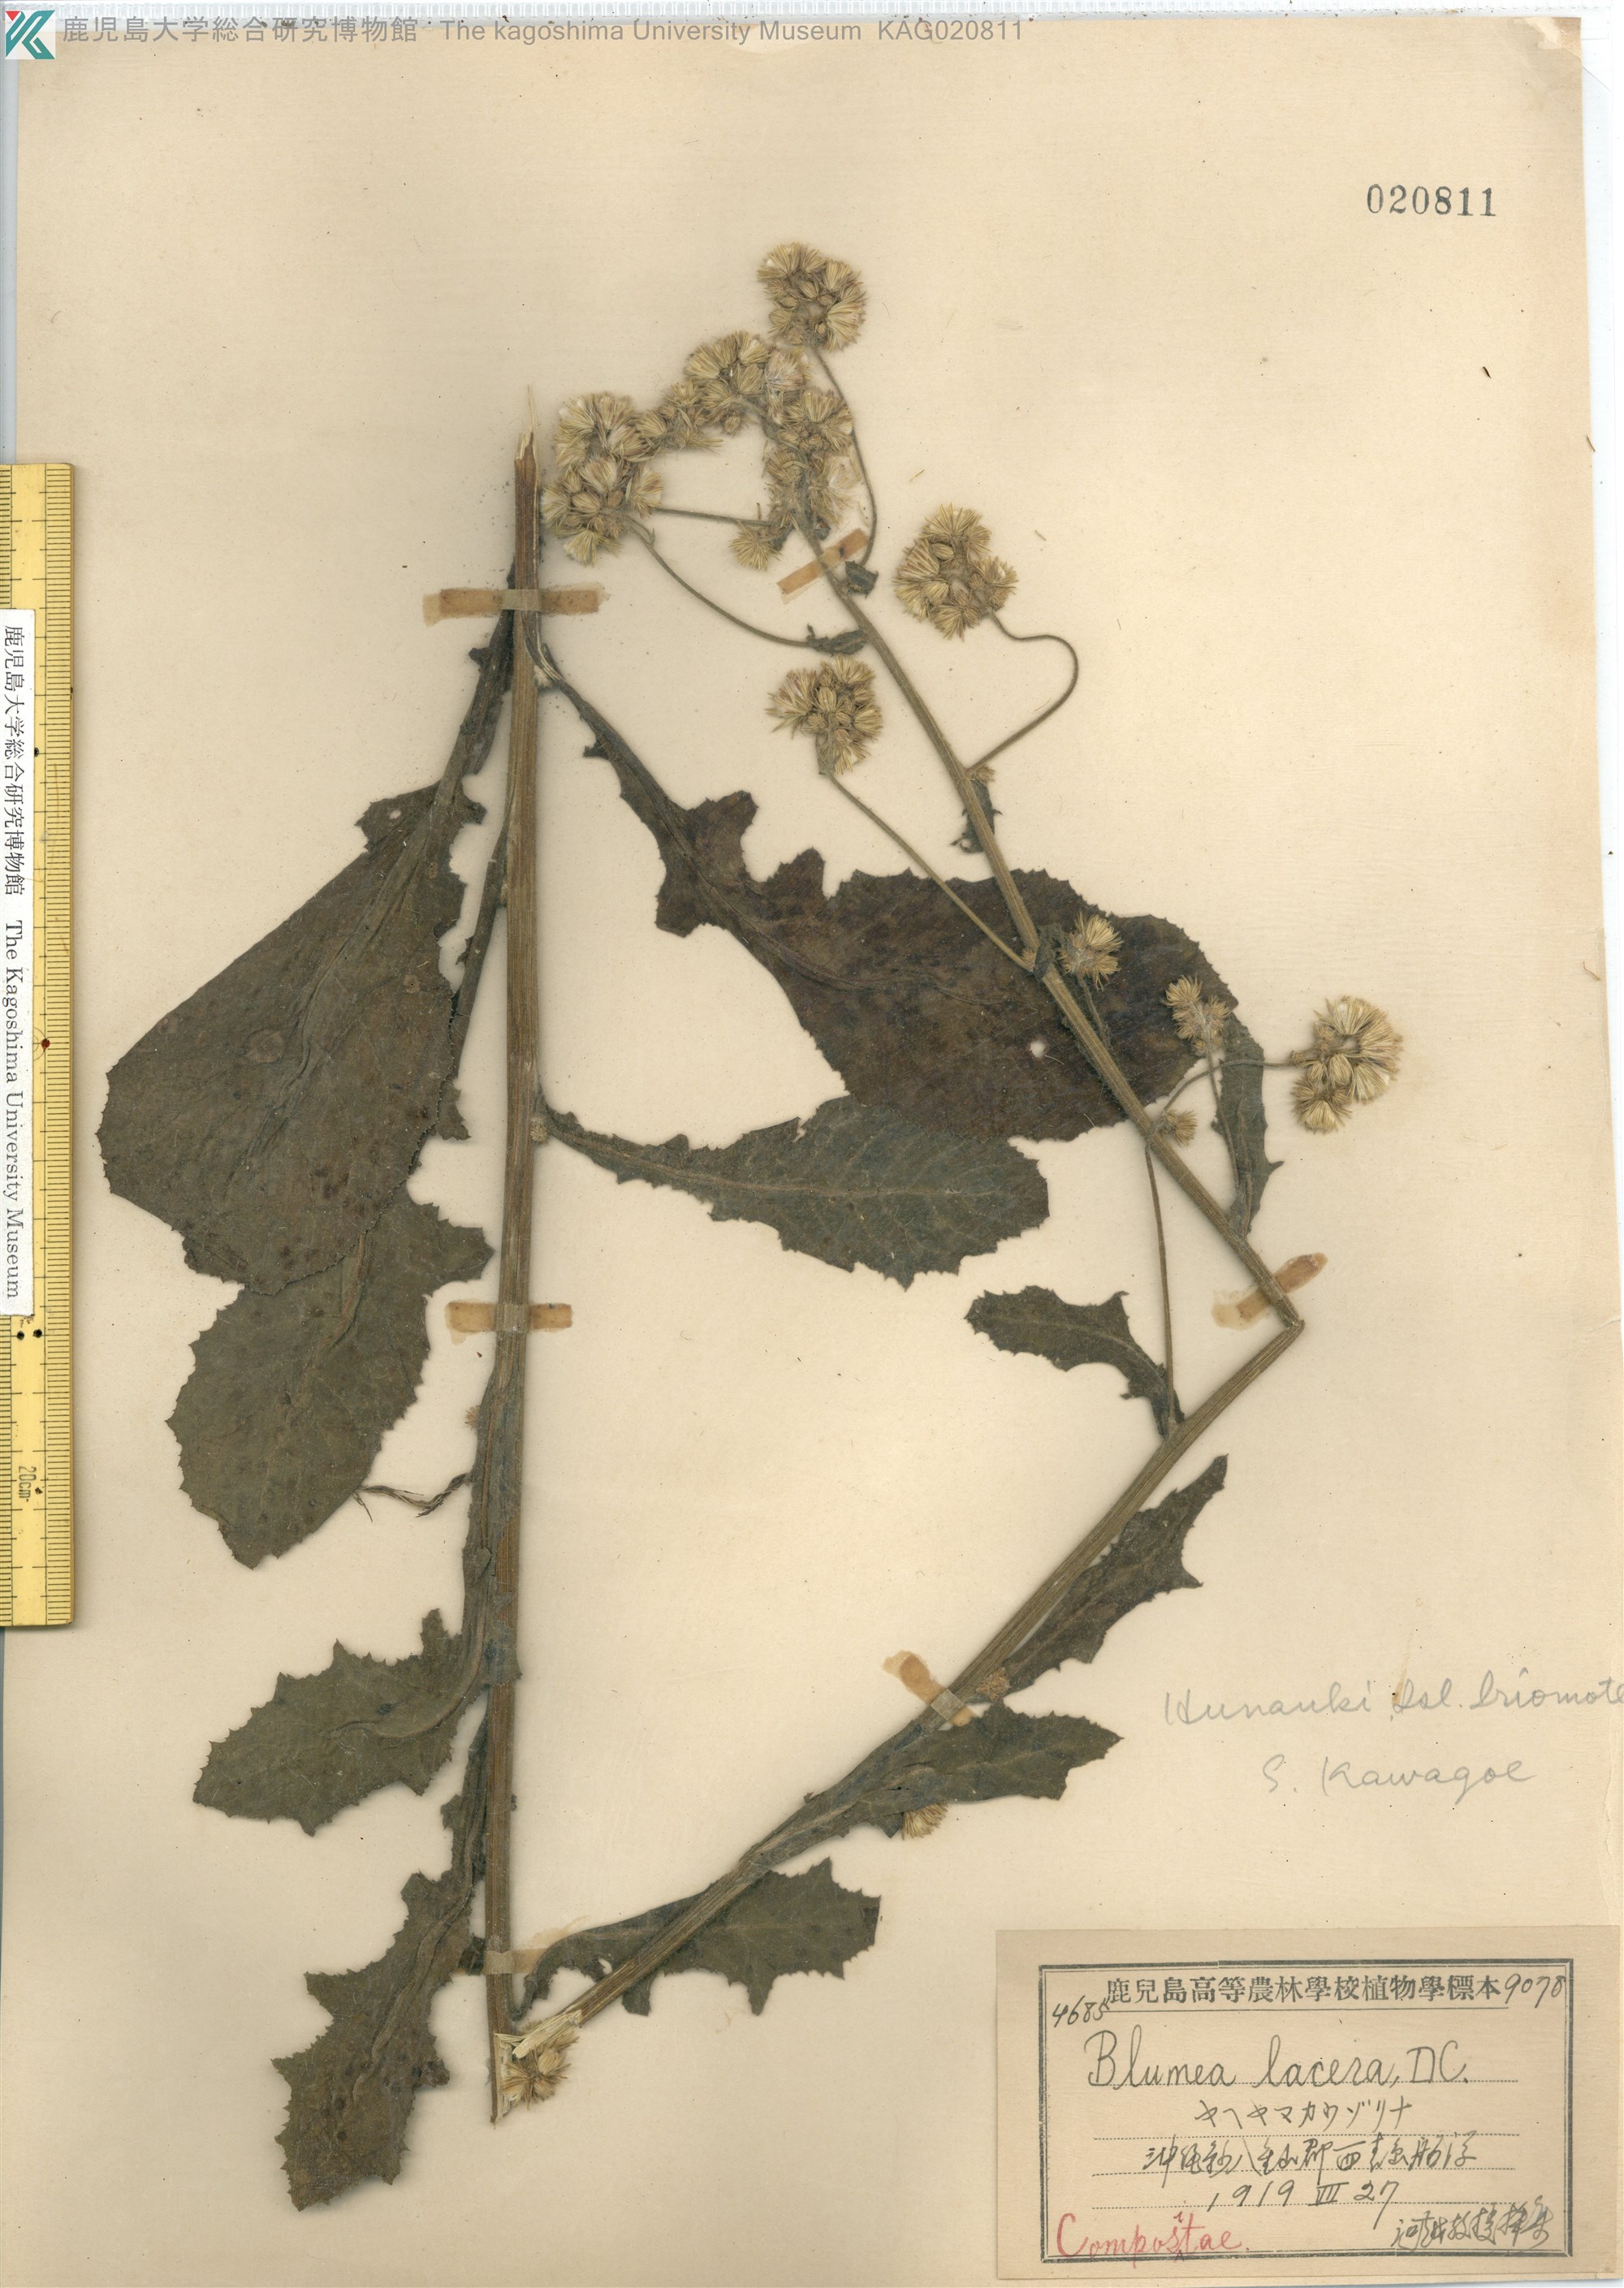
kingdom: Plantae
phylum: Tracheophyta
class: Magnoliopsida
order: Asterales
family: Asteraceae
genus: Blumea
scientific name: Blumea lacera
